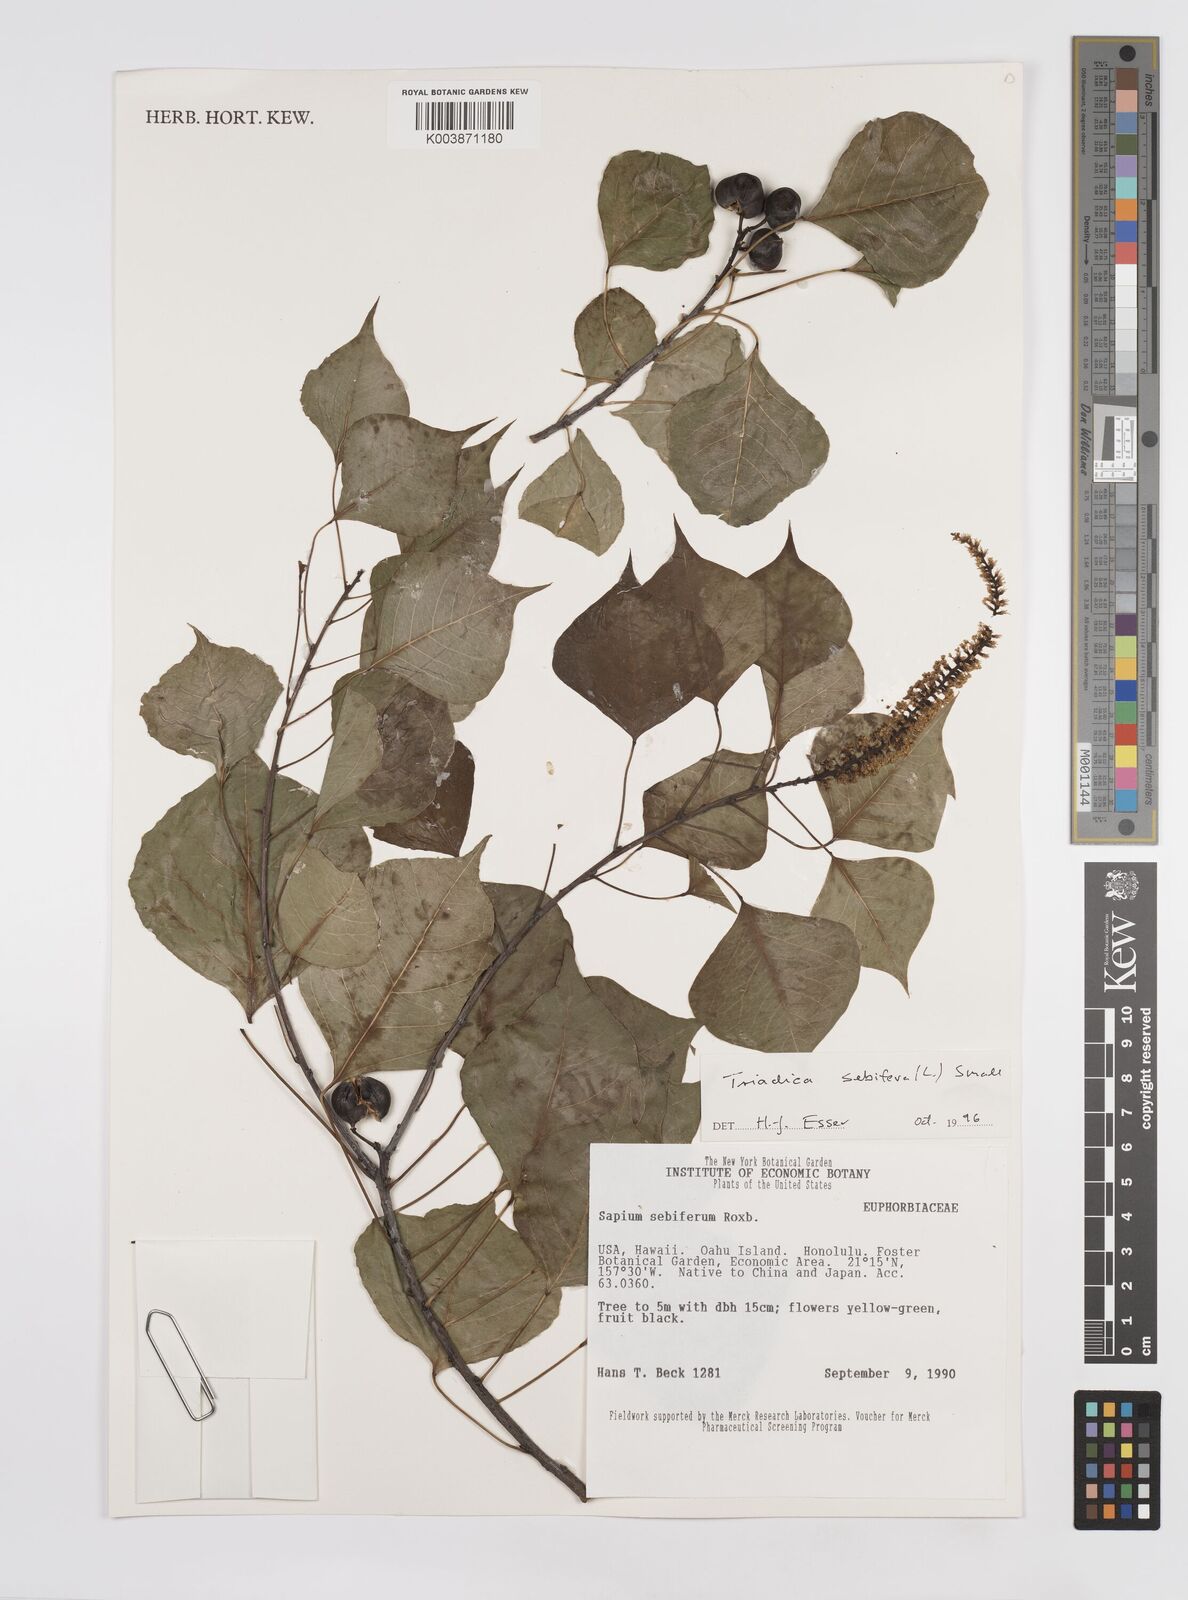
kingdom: Plantae
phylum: Tracheophyta
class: Magnoliopsida
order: Malpighiales
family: Euphorbiaceae
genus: Triadica
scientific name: Triadica sebifera
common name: Chinese tallow
